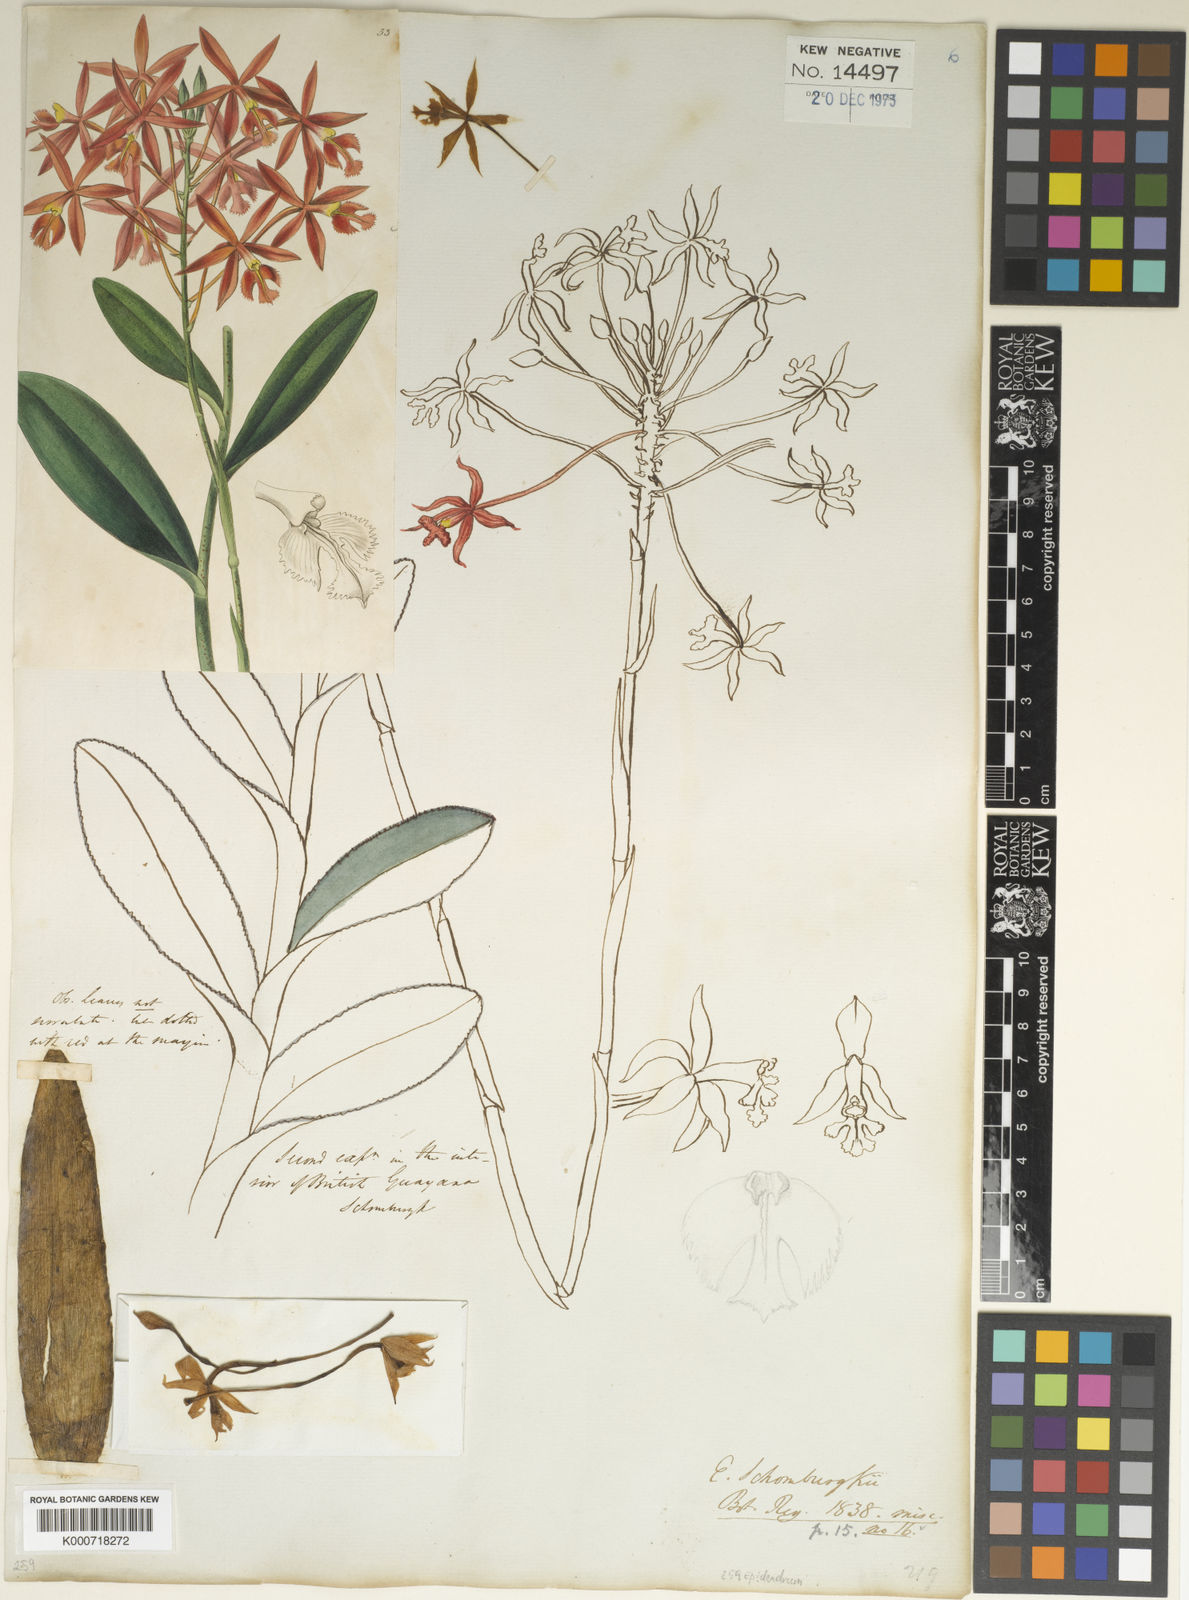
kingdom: Plantae
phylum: Tracheophyta
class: Liliopsida
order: Asparagales
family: Orchidaceae
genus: Epidendrum
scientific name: Epidendrum macrocarpum
